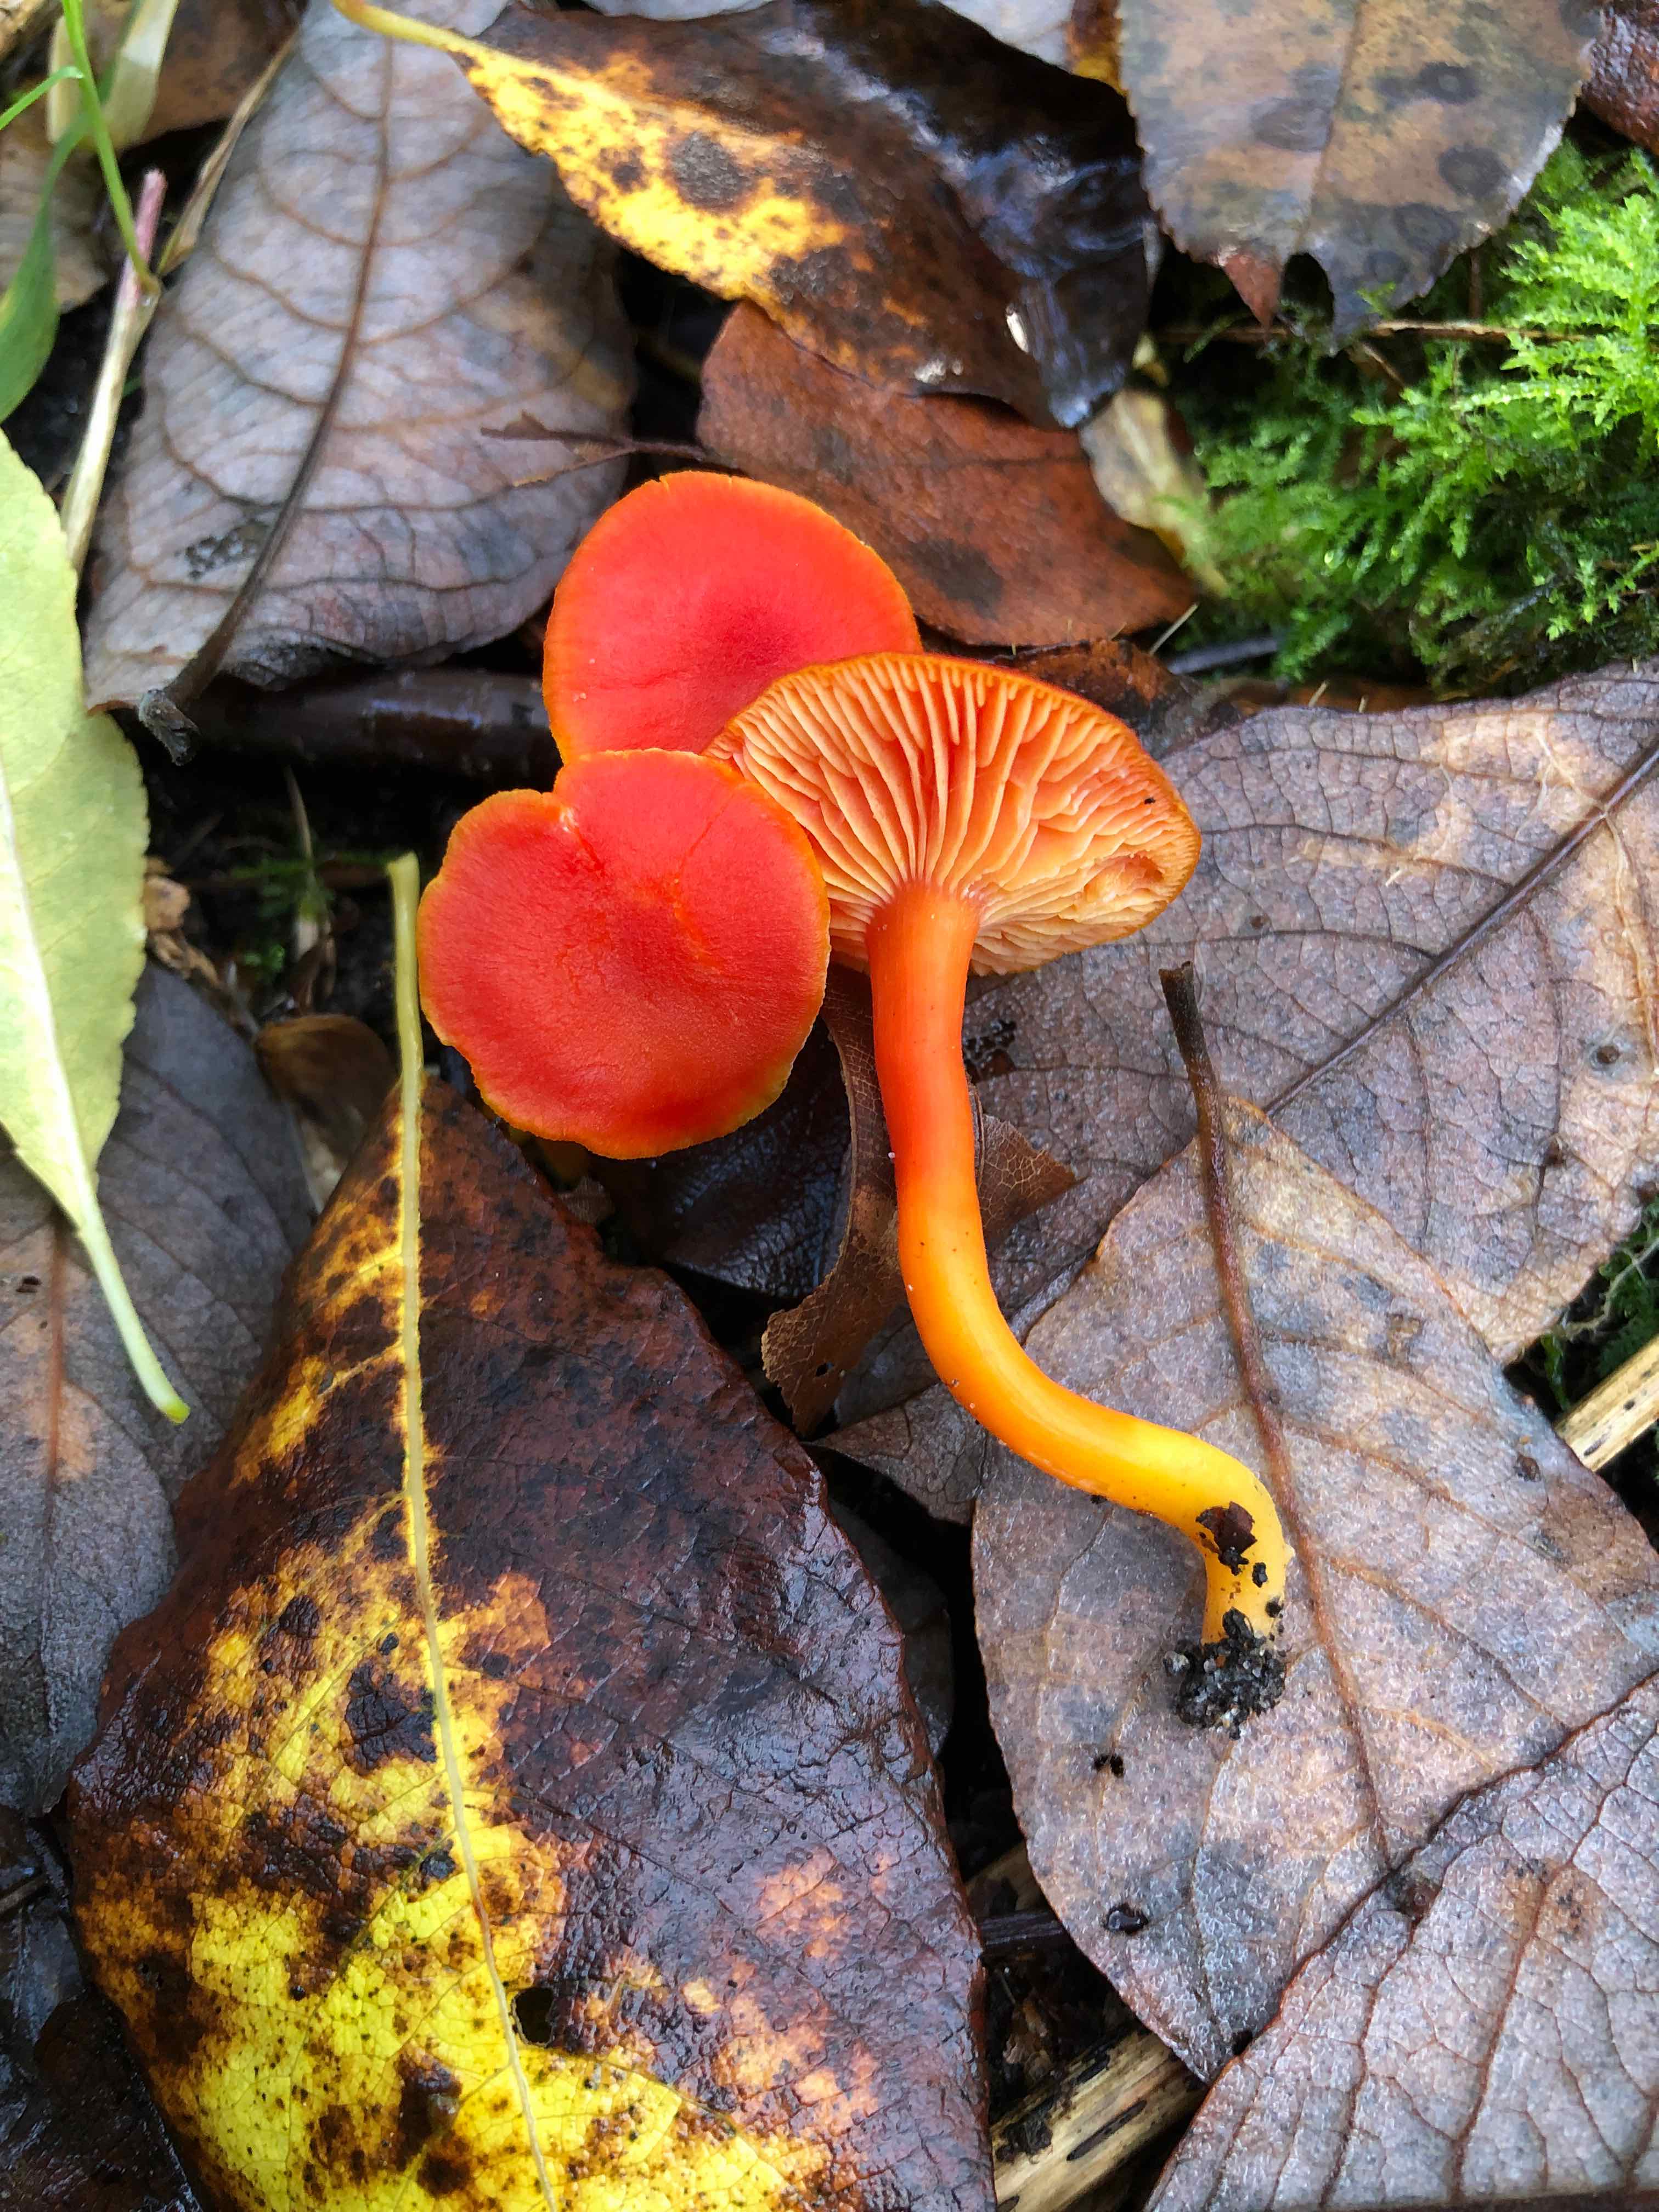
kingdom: Fungi
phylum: Basidiomycota
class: Agaricomycetes
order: Agaricales
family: Hygrophoraceae
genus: Hygrocybe
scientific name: Hygrocybe miniata
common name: mønje-vokshat
